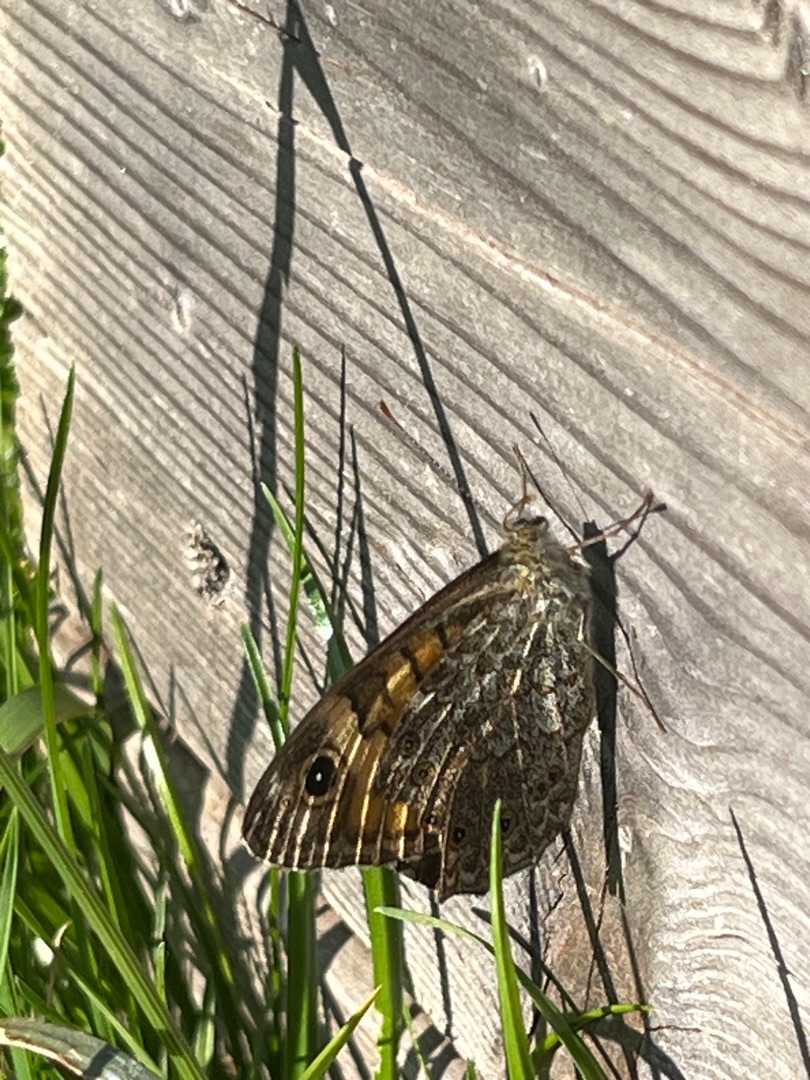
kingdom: Animalia
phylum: Arthropoda
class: Insecta
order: Lepidoptera
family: Nymphalidae
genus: Pararge
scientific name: Pararge Lasiommata megera
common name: Vejrandøje
